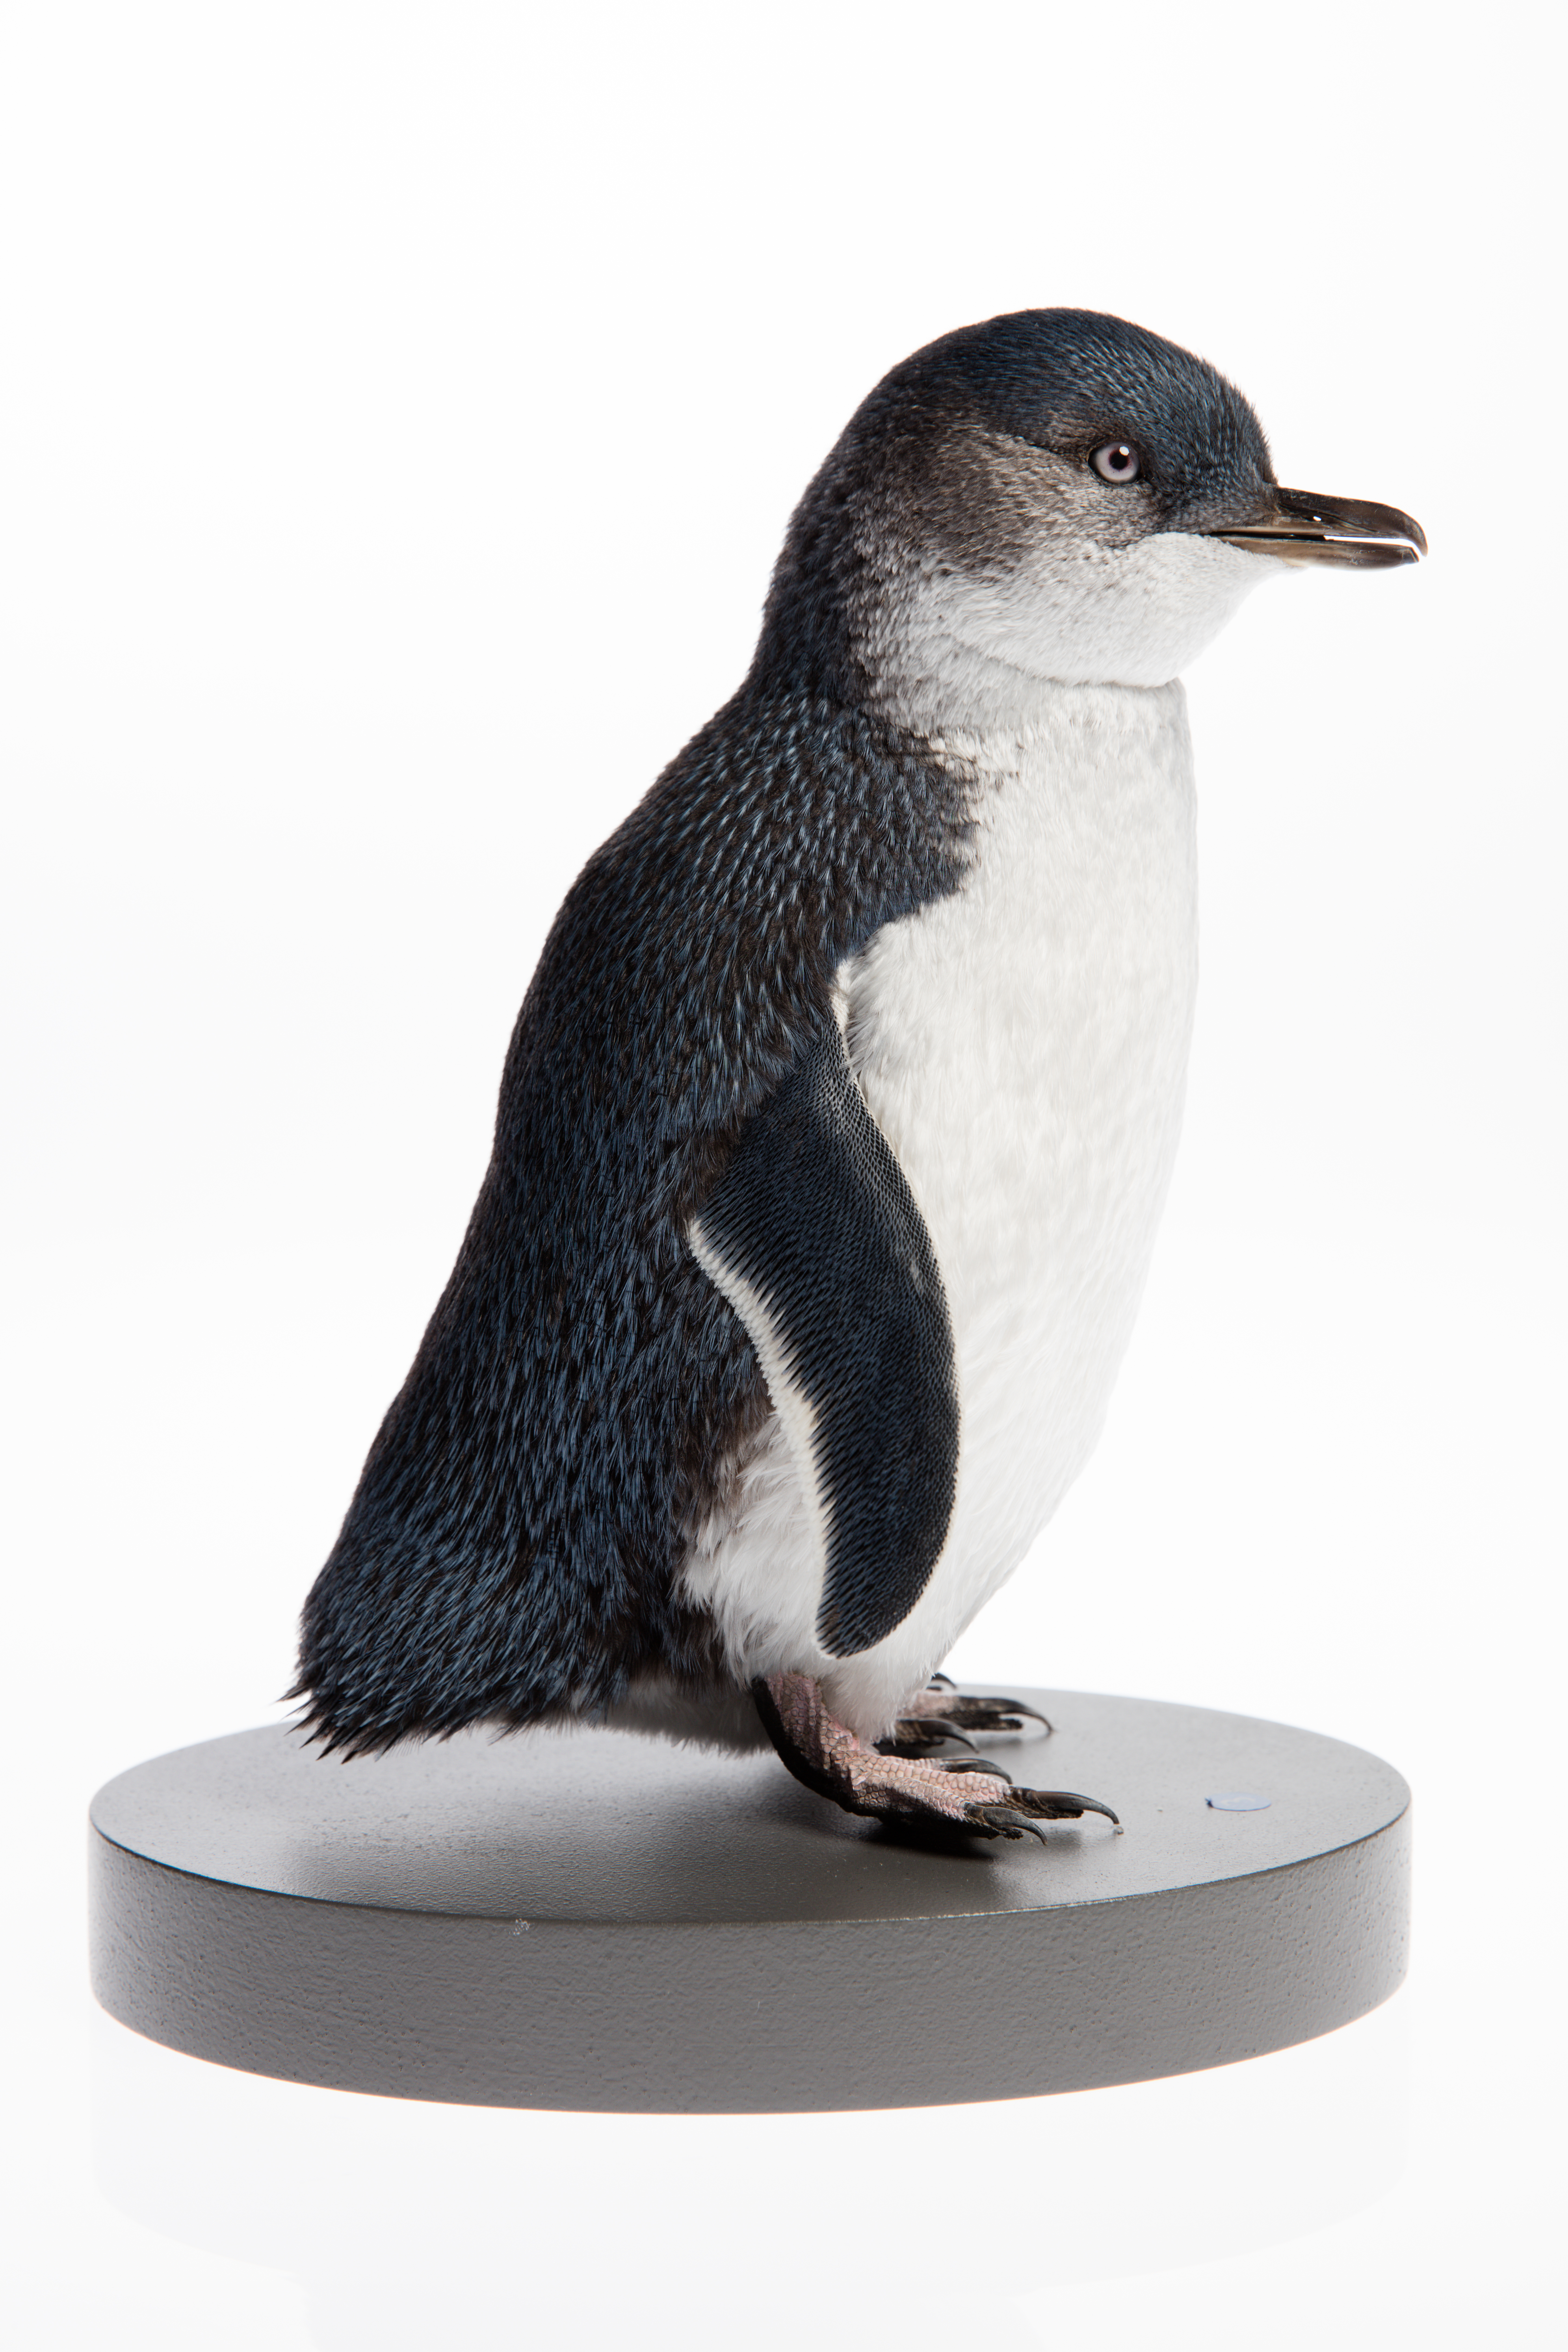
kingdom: Animalia
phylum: Chordata
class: Aves
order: Sphenisciformes
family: Spheniscidae
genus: Eudyptula
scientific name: Eudyptula minor
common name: Little penguin
